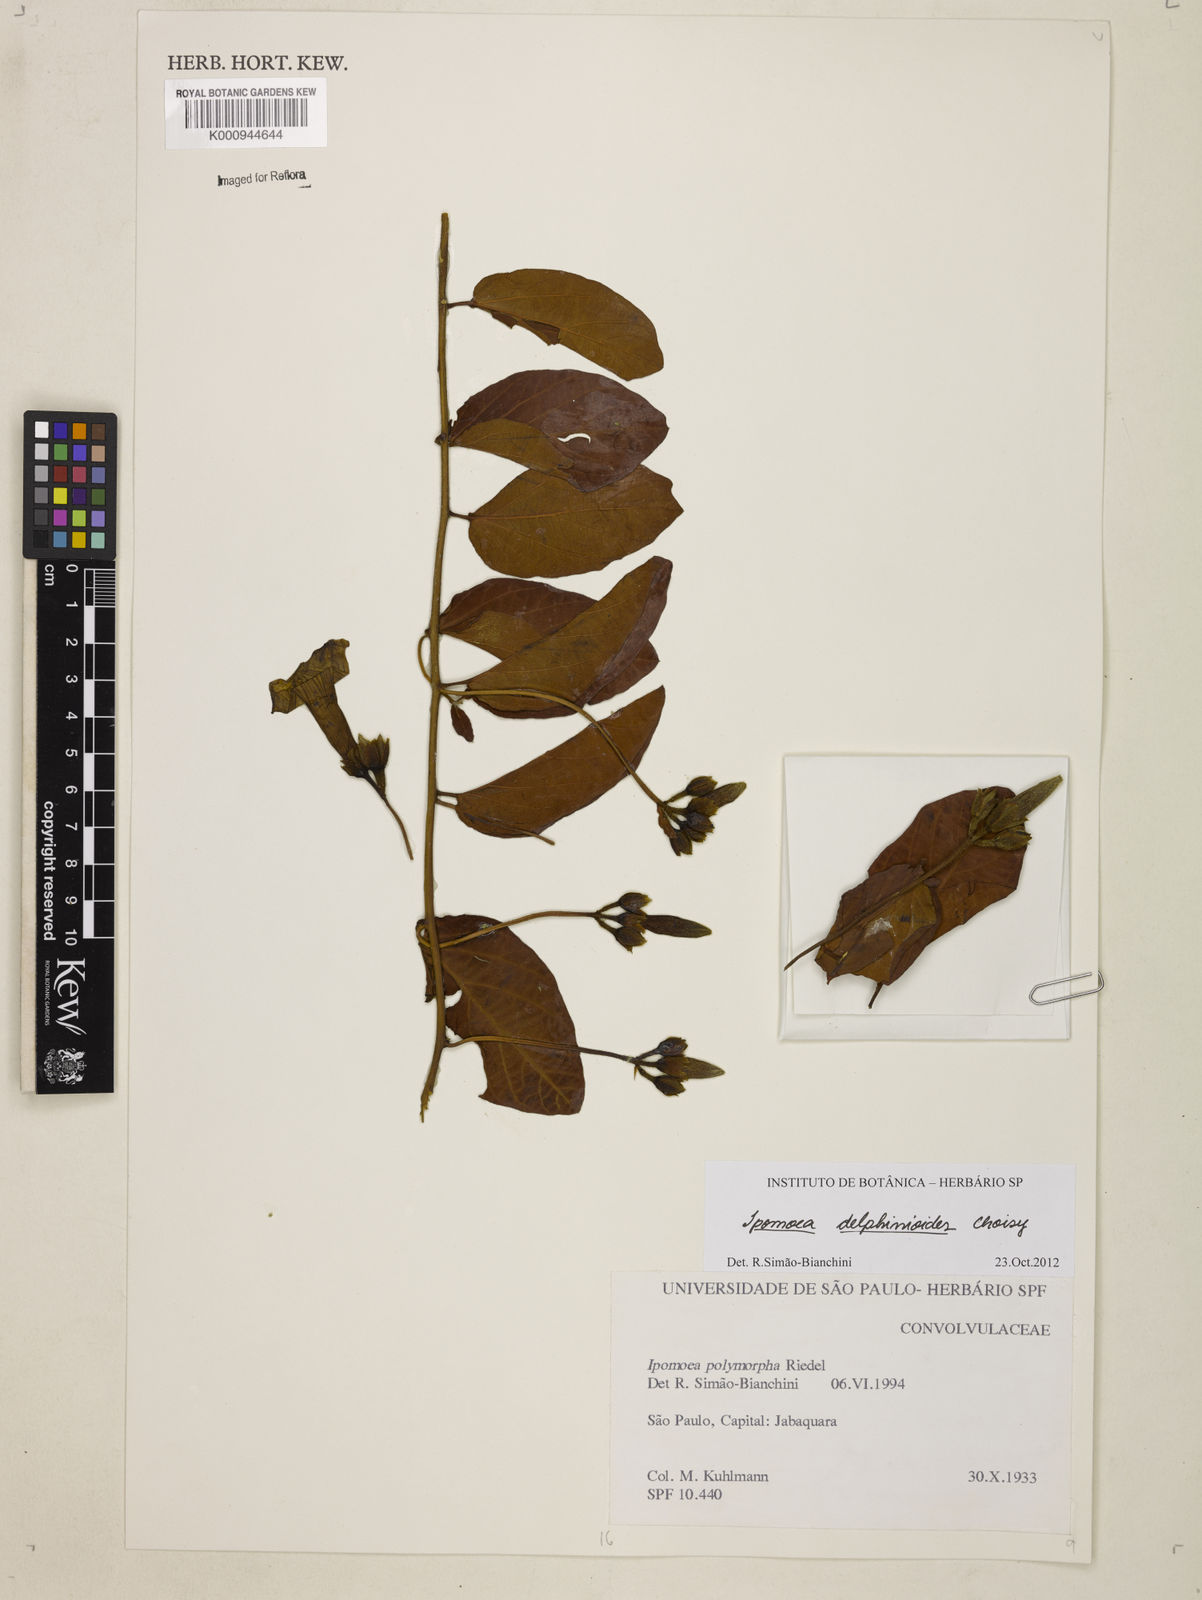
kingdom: Plantae
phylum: Tracheophyta
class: Magnoliopsida
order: Solanales
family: Convolvulaceae
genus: Ipomoea
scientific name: Ipomoea delphinioides
